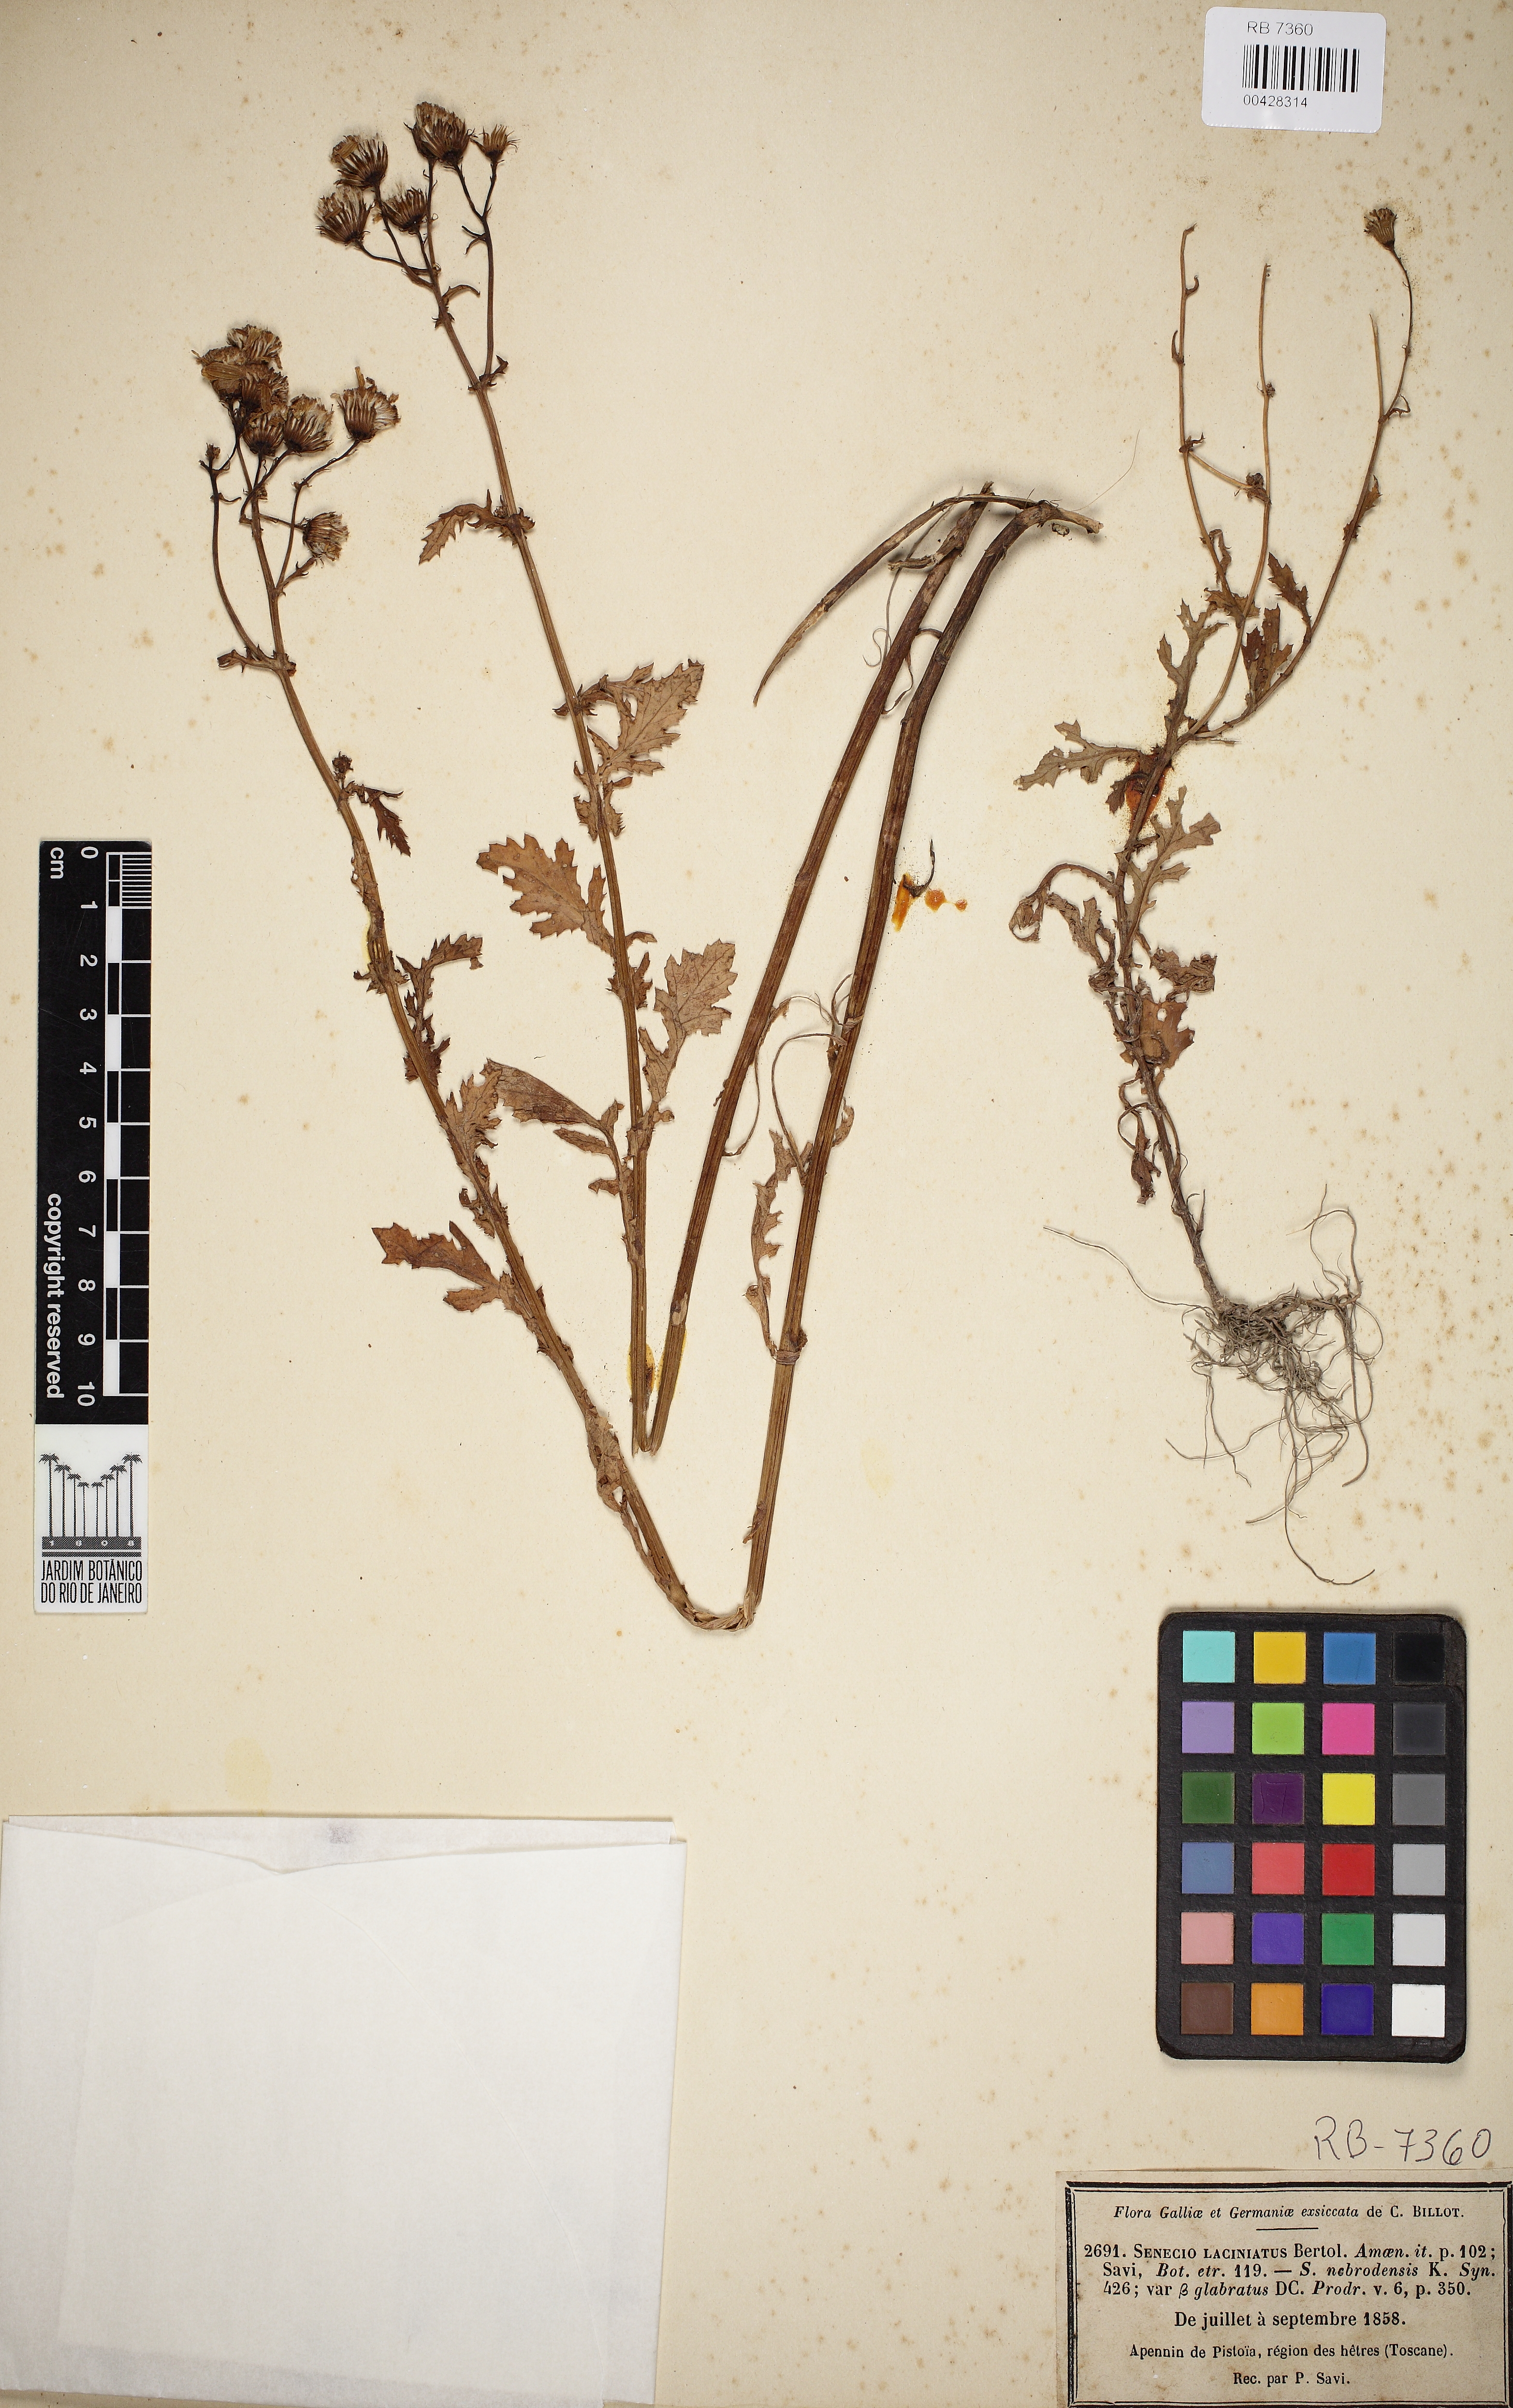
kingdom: Plantae
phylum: Tracheophyta
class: Magnoliopsida
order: Asterales
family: Asteraceae
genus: Senecio
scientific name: Senecio rupestris
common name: Rock ragwort
